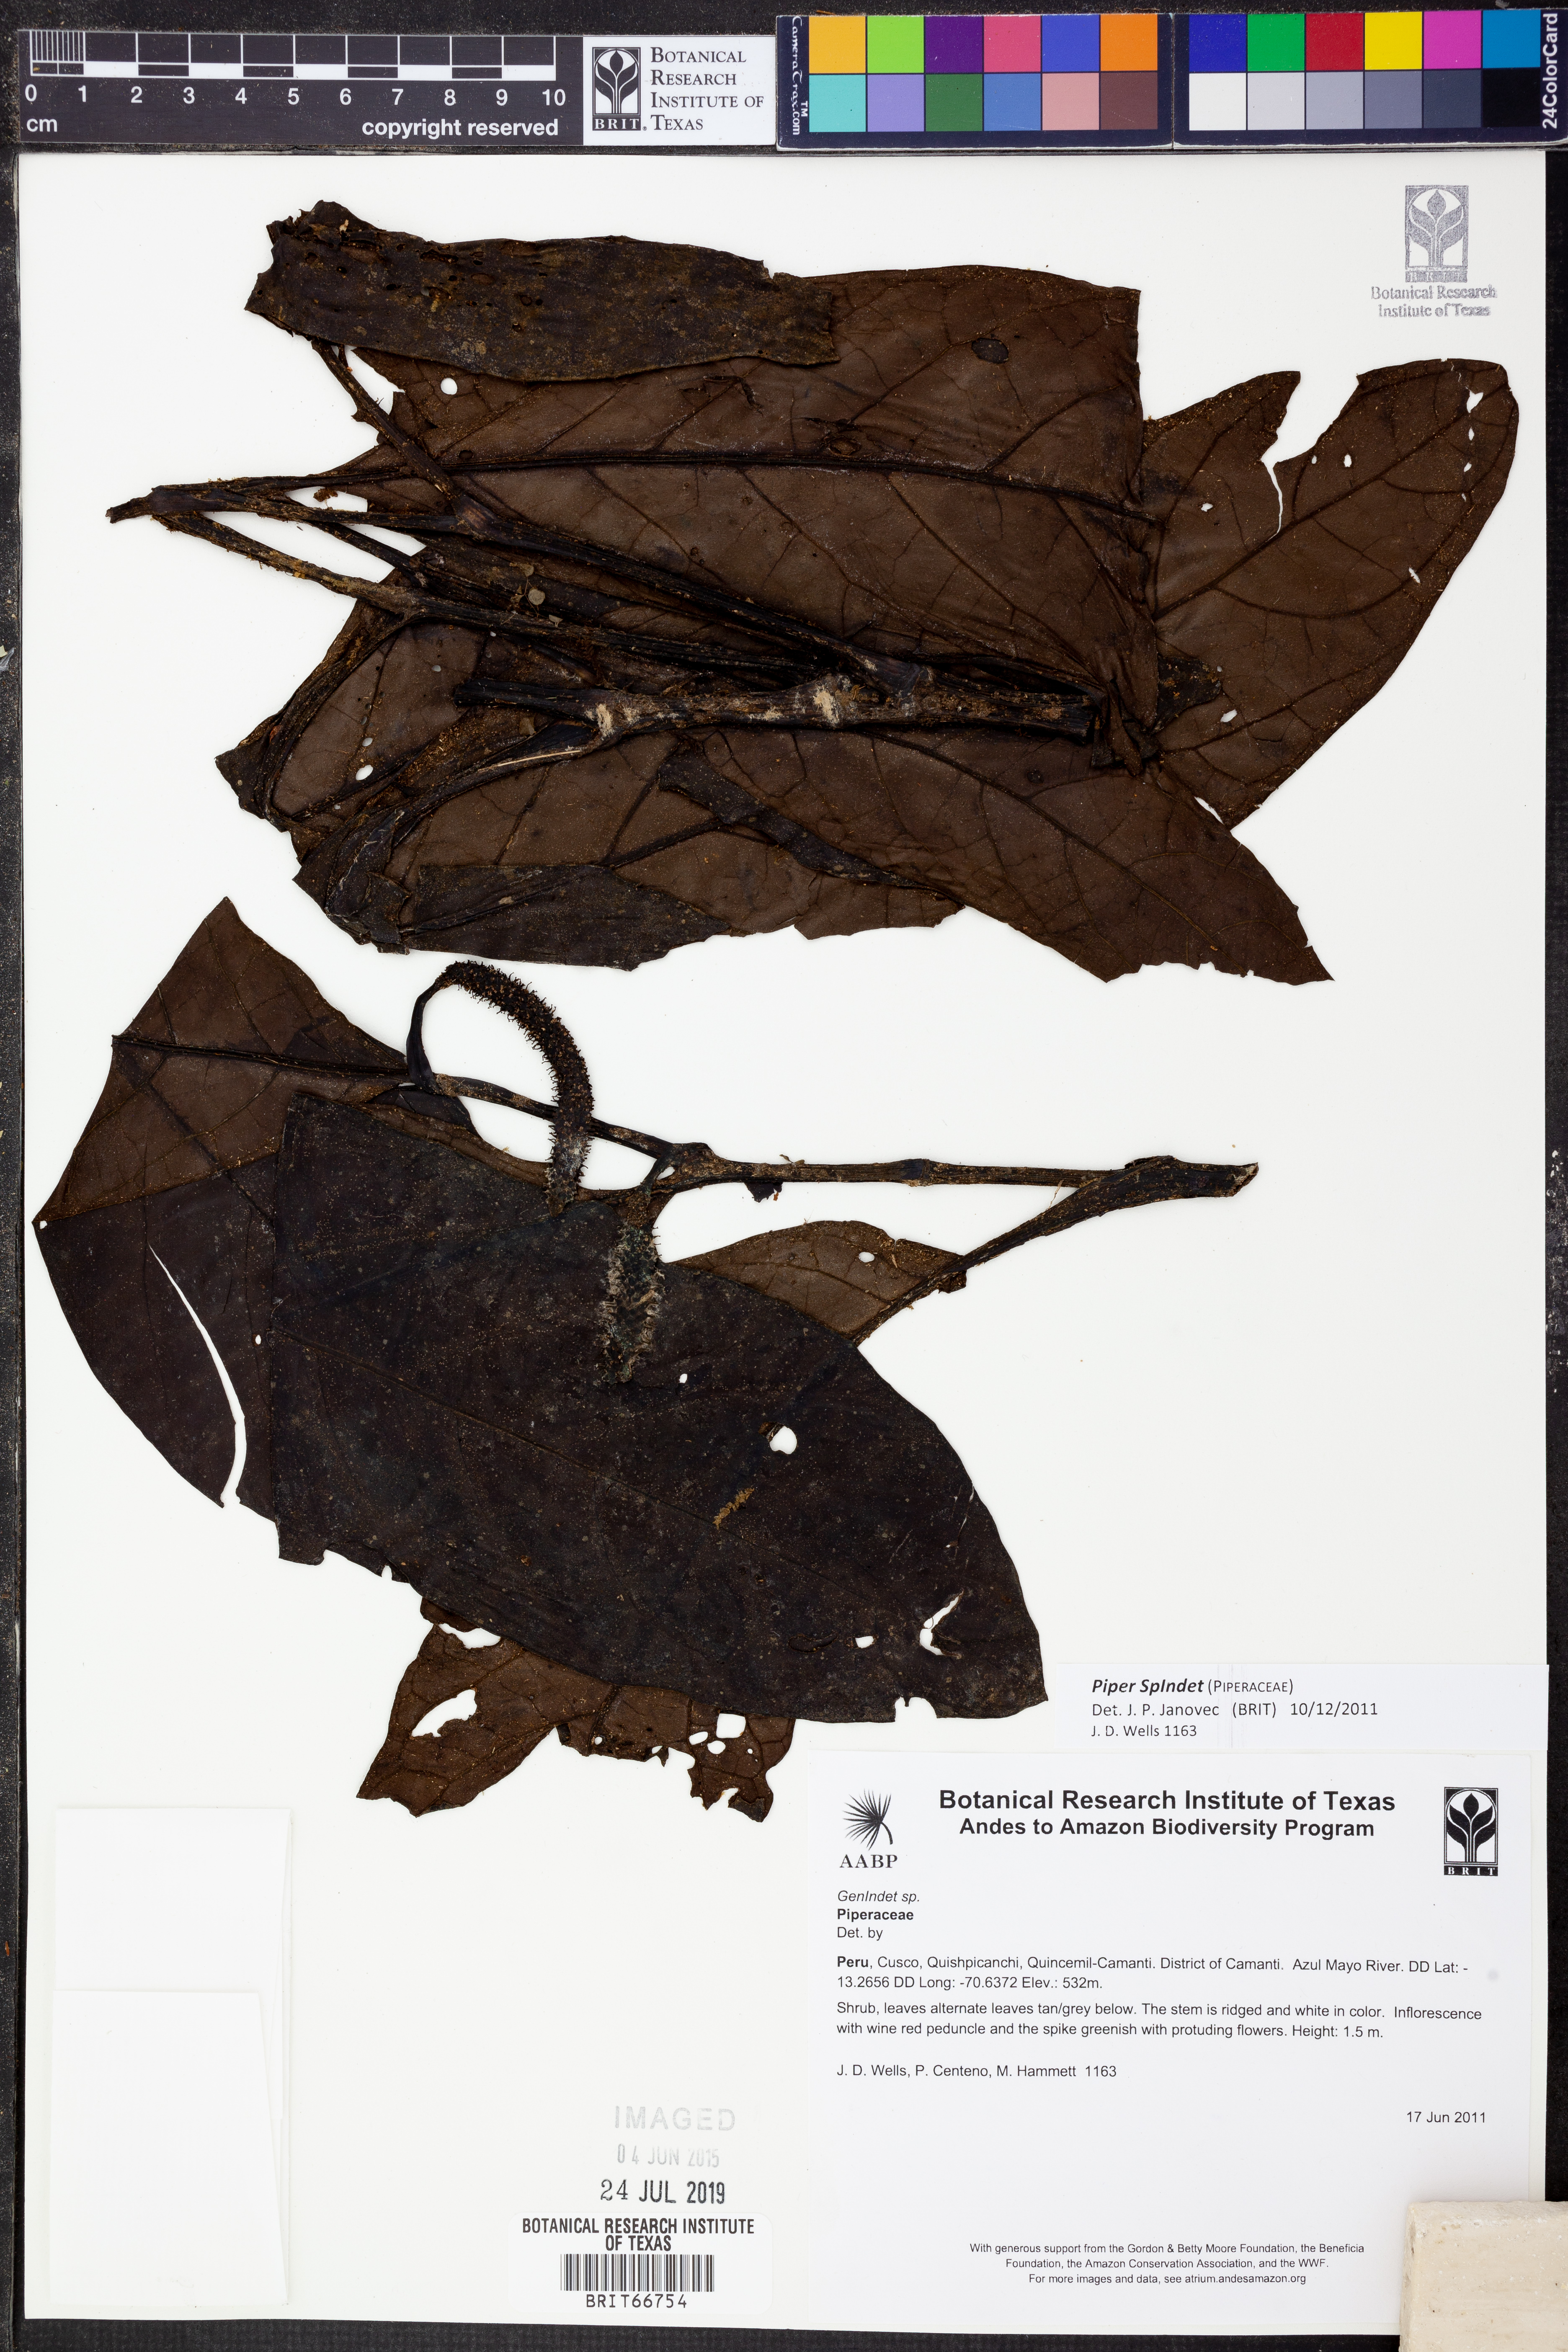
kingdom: Plantae
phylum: Tracheophyta
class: Magnoliopsida
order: Piperales
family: Piperaceae
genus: Piper
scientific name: Piper
